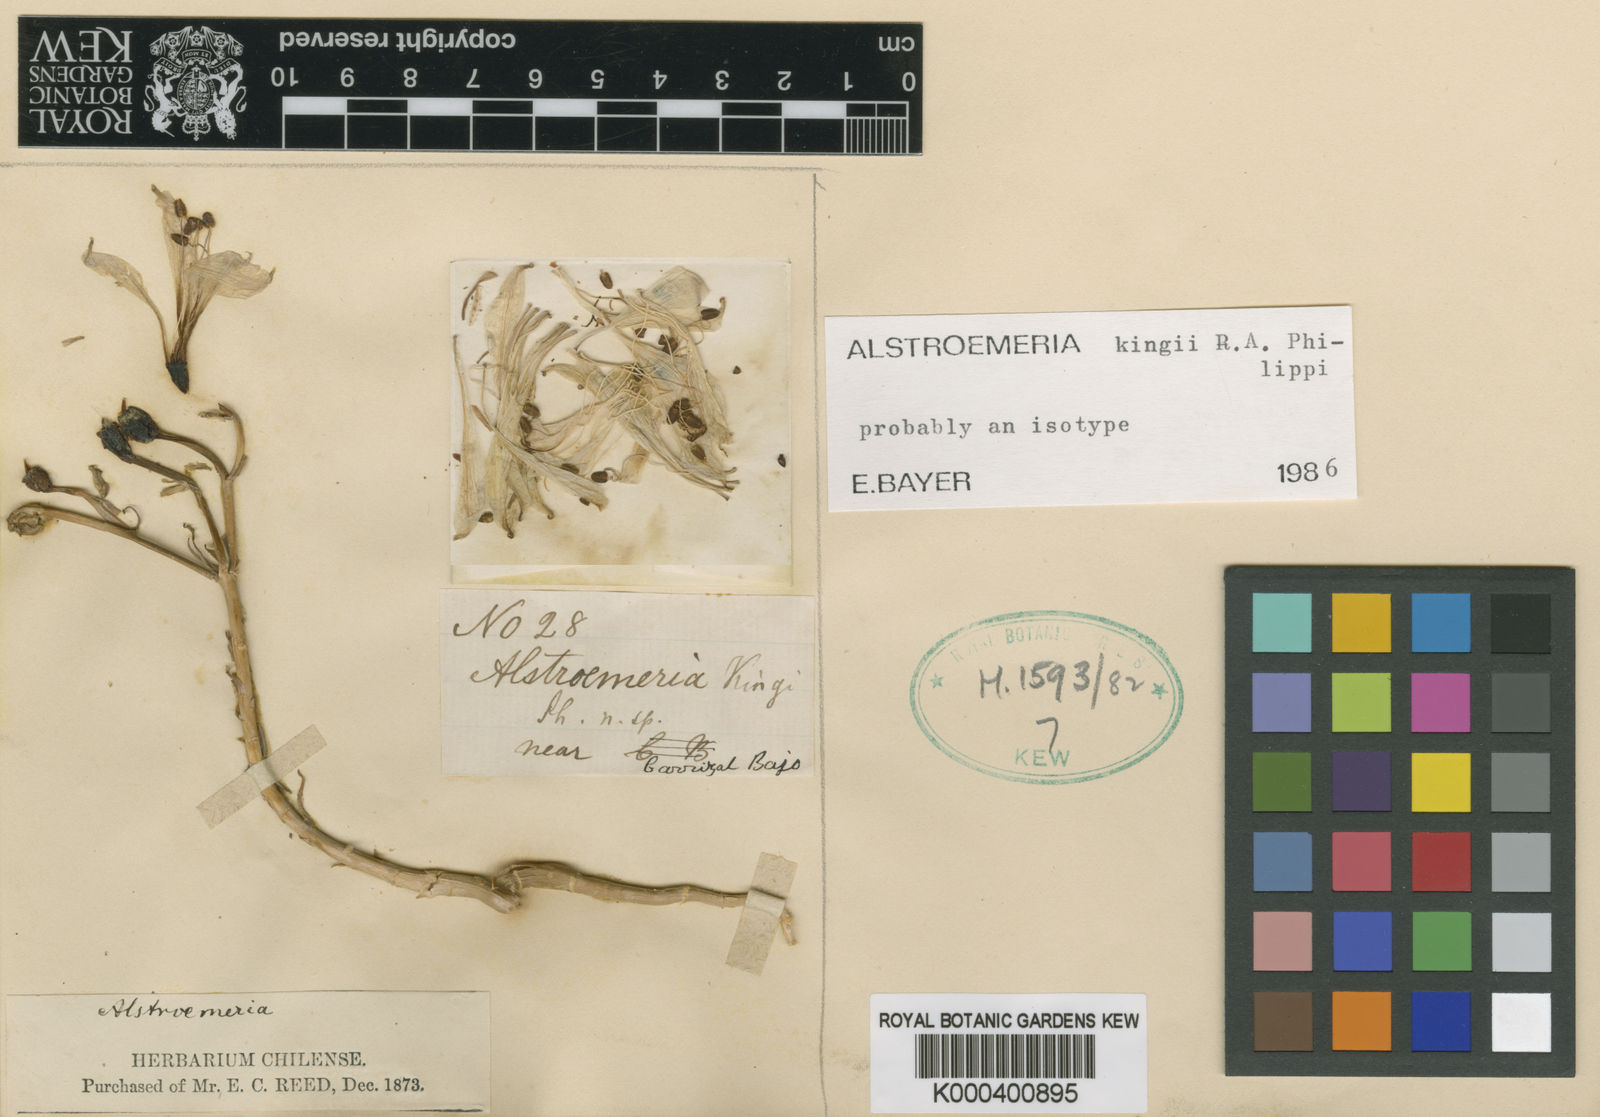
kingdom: Plantae
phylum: Tracheophyta
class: Liliopsida
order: Liliales
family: Alstroemeriaceae
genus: Alstroemeria
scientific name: Alstroemeria kingii
